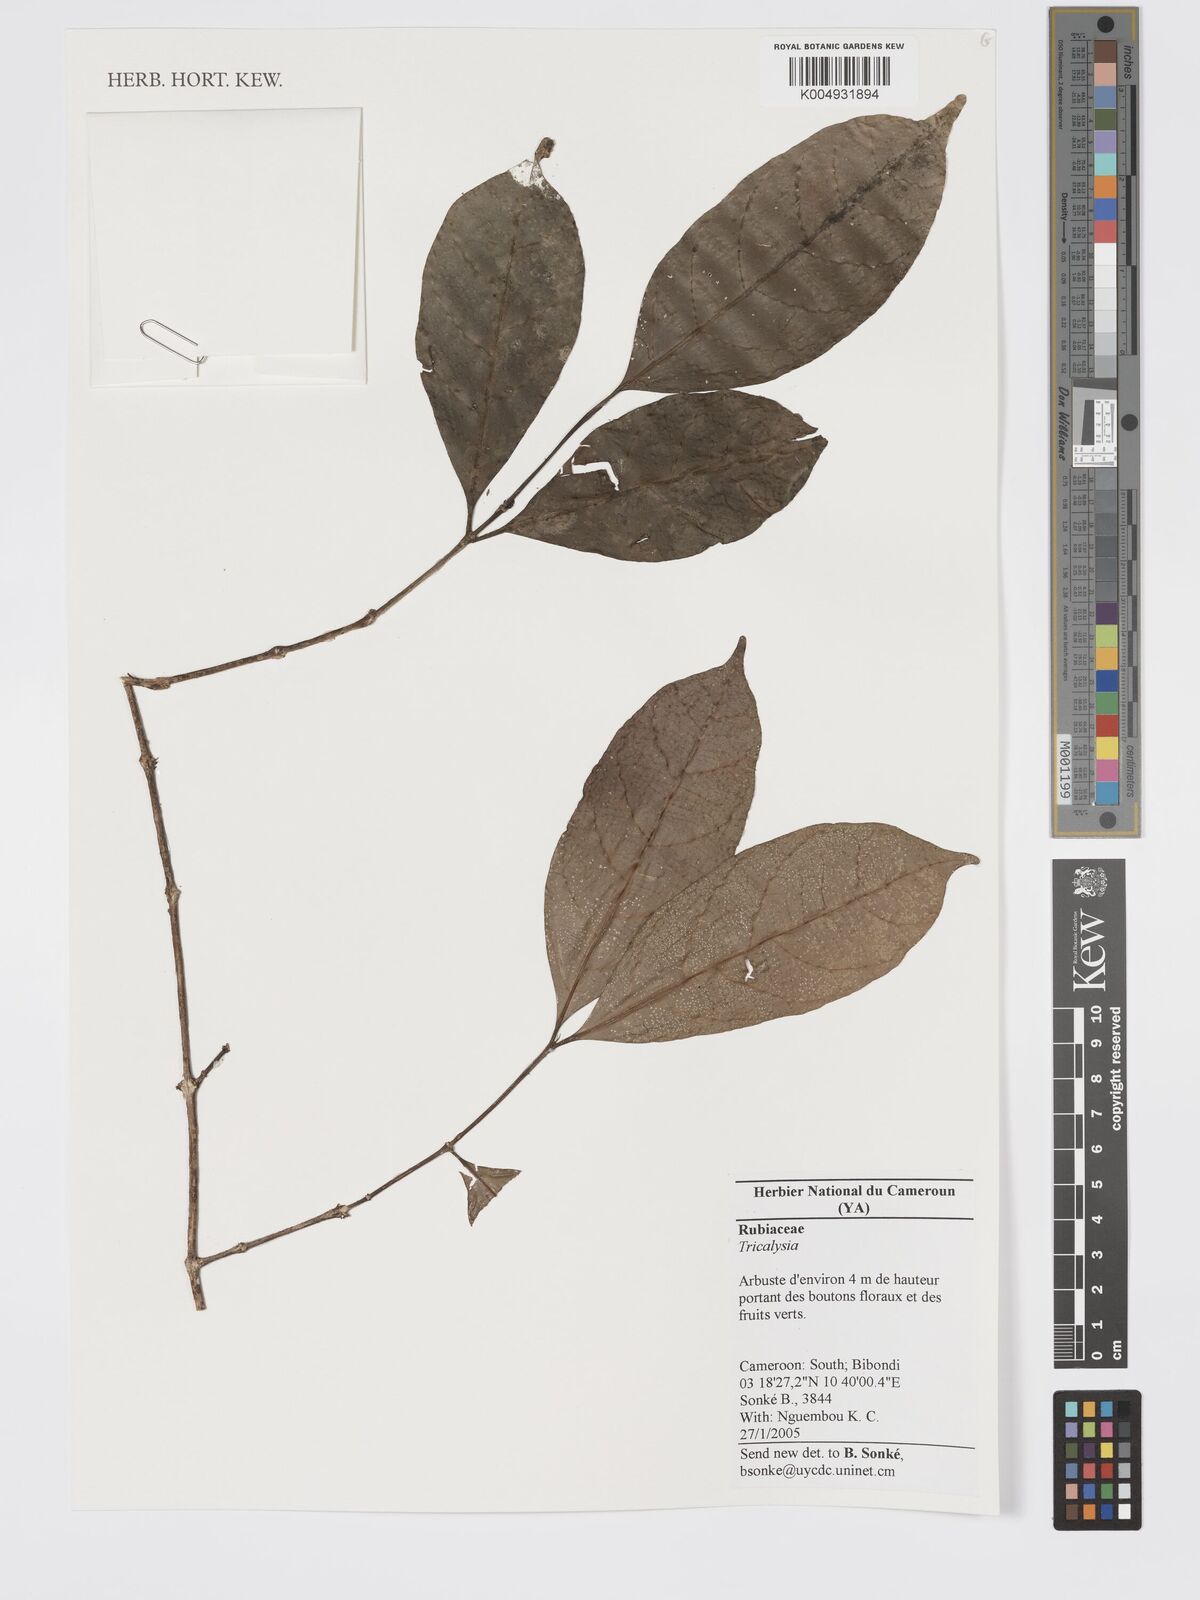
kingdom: Plantae
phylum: Tracheophyta
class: Magnoliopsida
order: Gentianales
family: Rubiaceae
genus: Tricalysia
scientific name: Tricalysia
